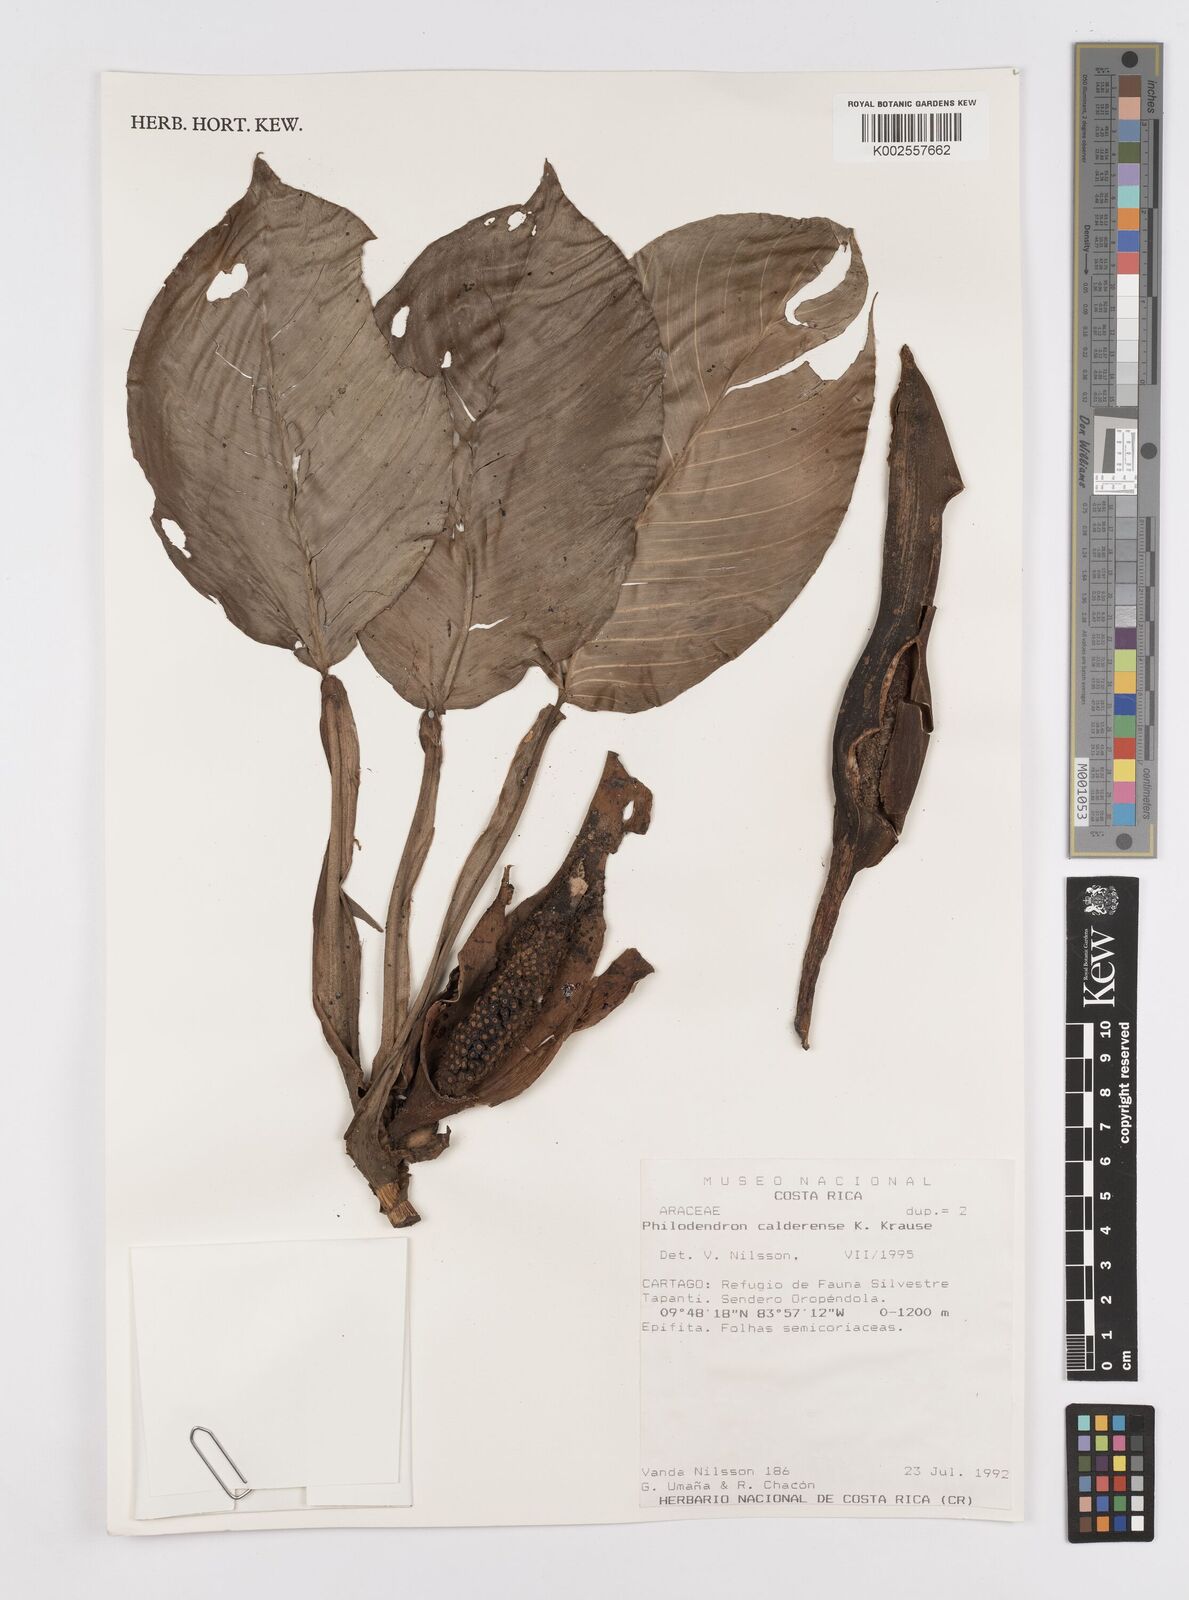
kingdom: Plantae
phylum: Tracheophyta
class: Liliopsida
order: Alismatales
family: Araceae
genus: Philodendron
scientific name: Philodendron aurantiifolium
